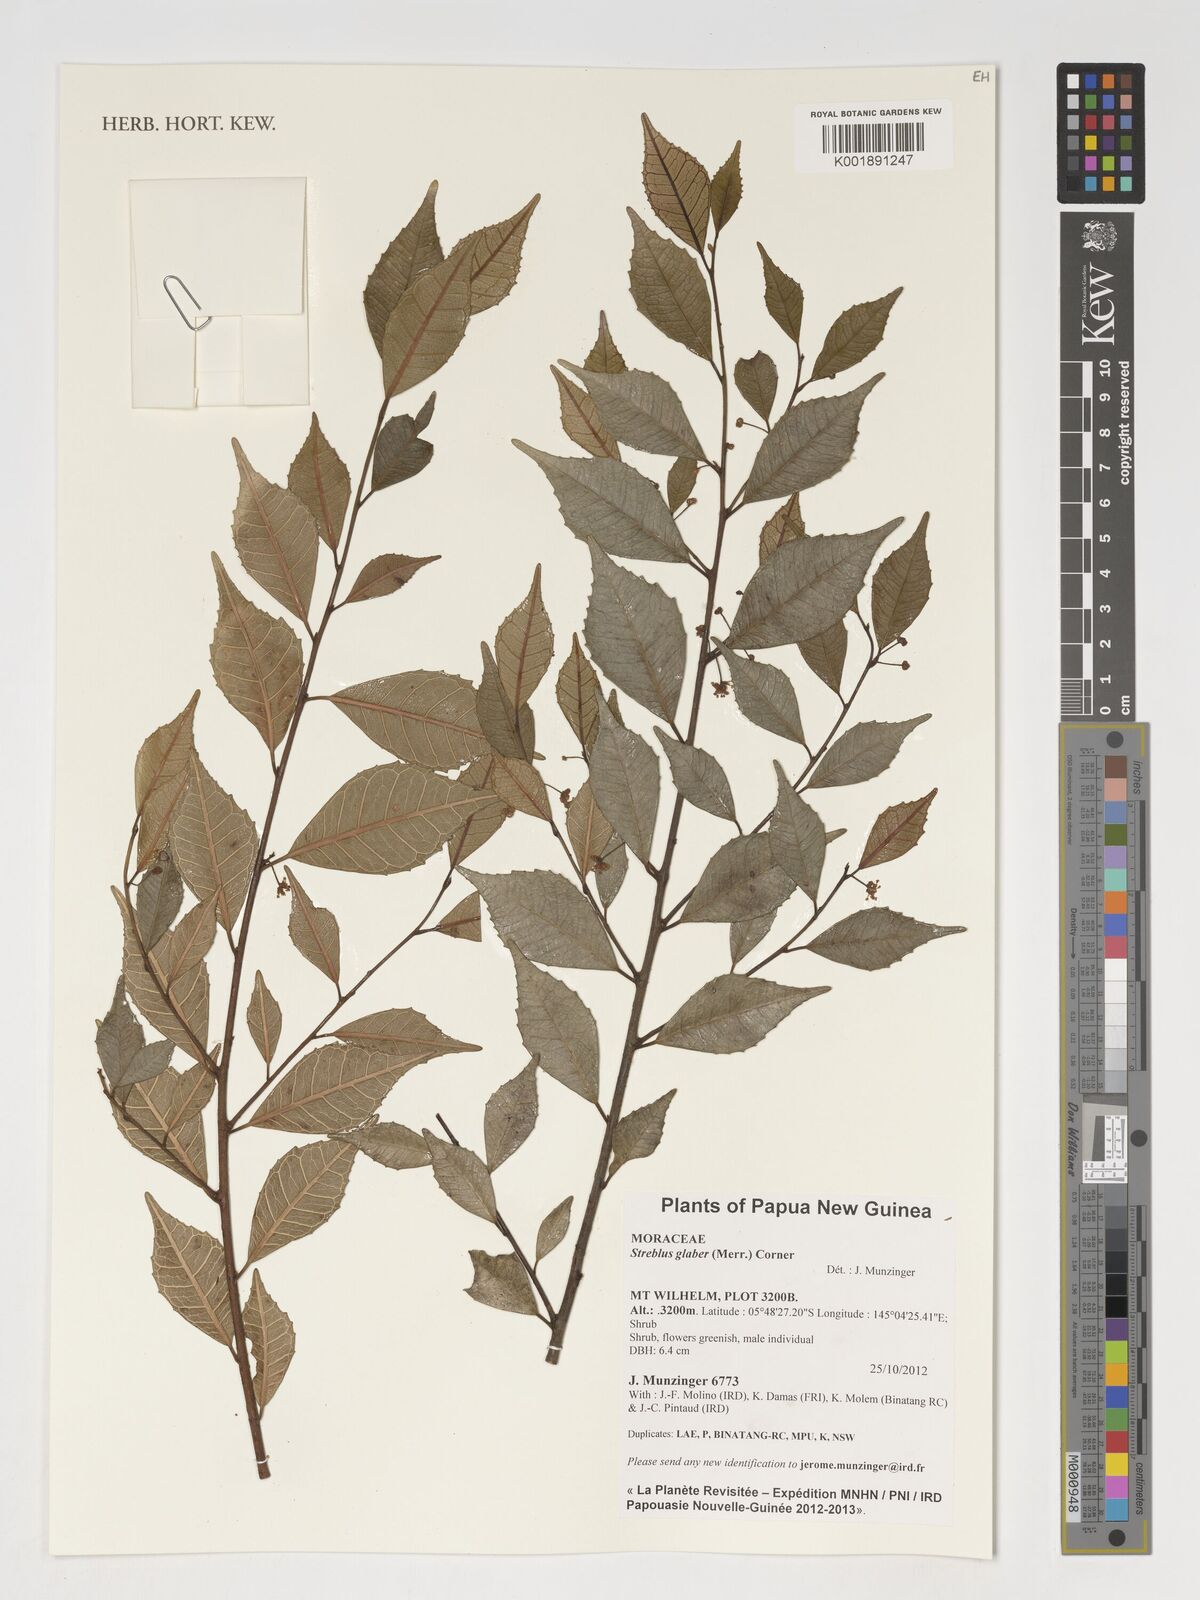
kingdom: Plantae
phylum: Tracheophyta
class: Magnoliopsida
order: Rosales
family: Moraceae
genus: Paratrophis
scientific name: Paratrophis glabra
